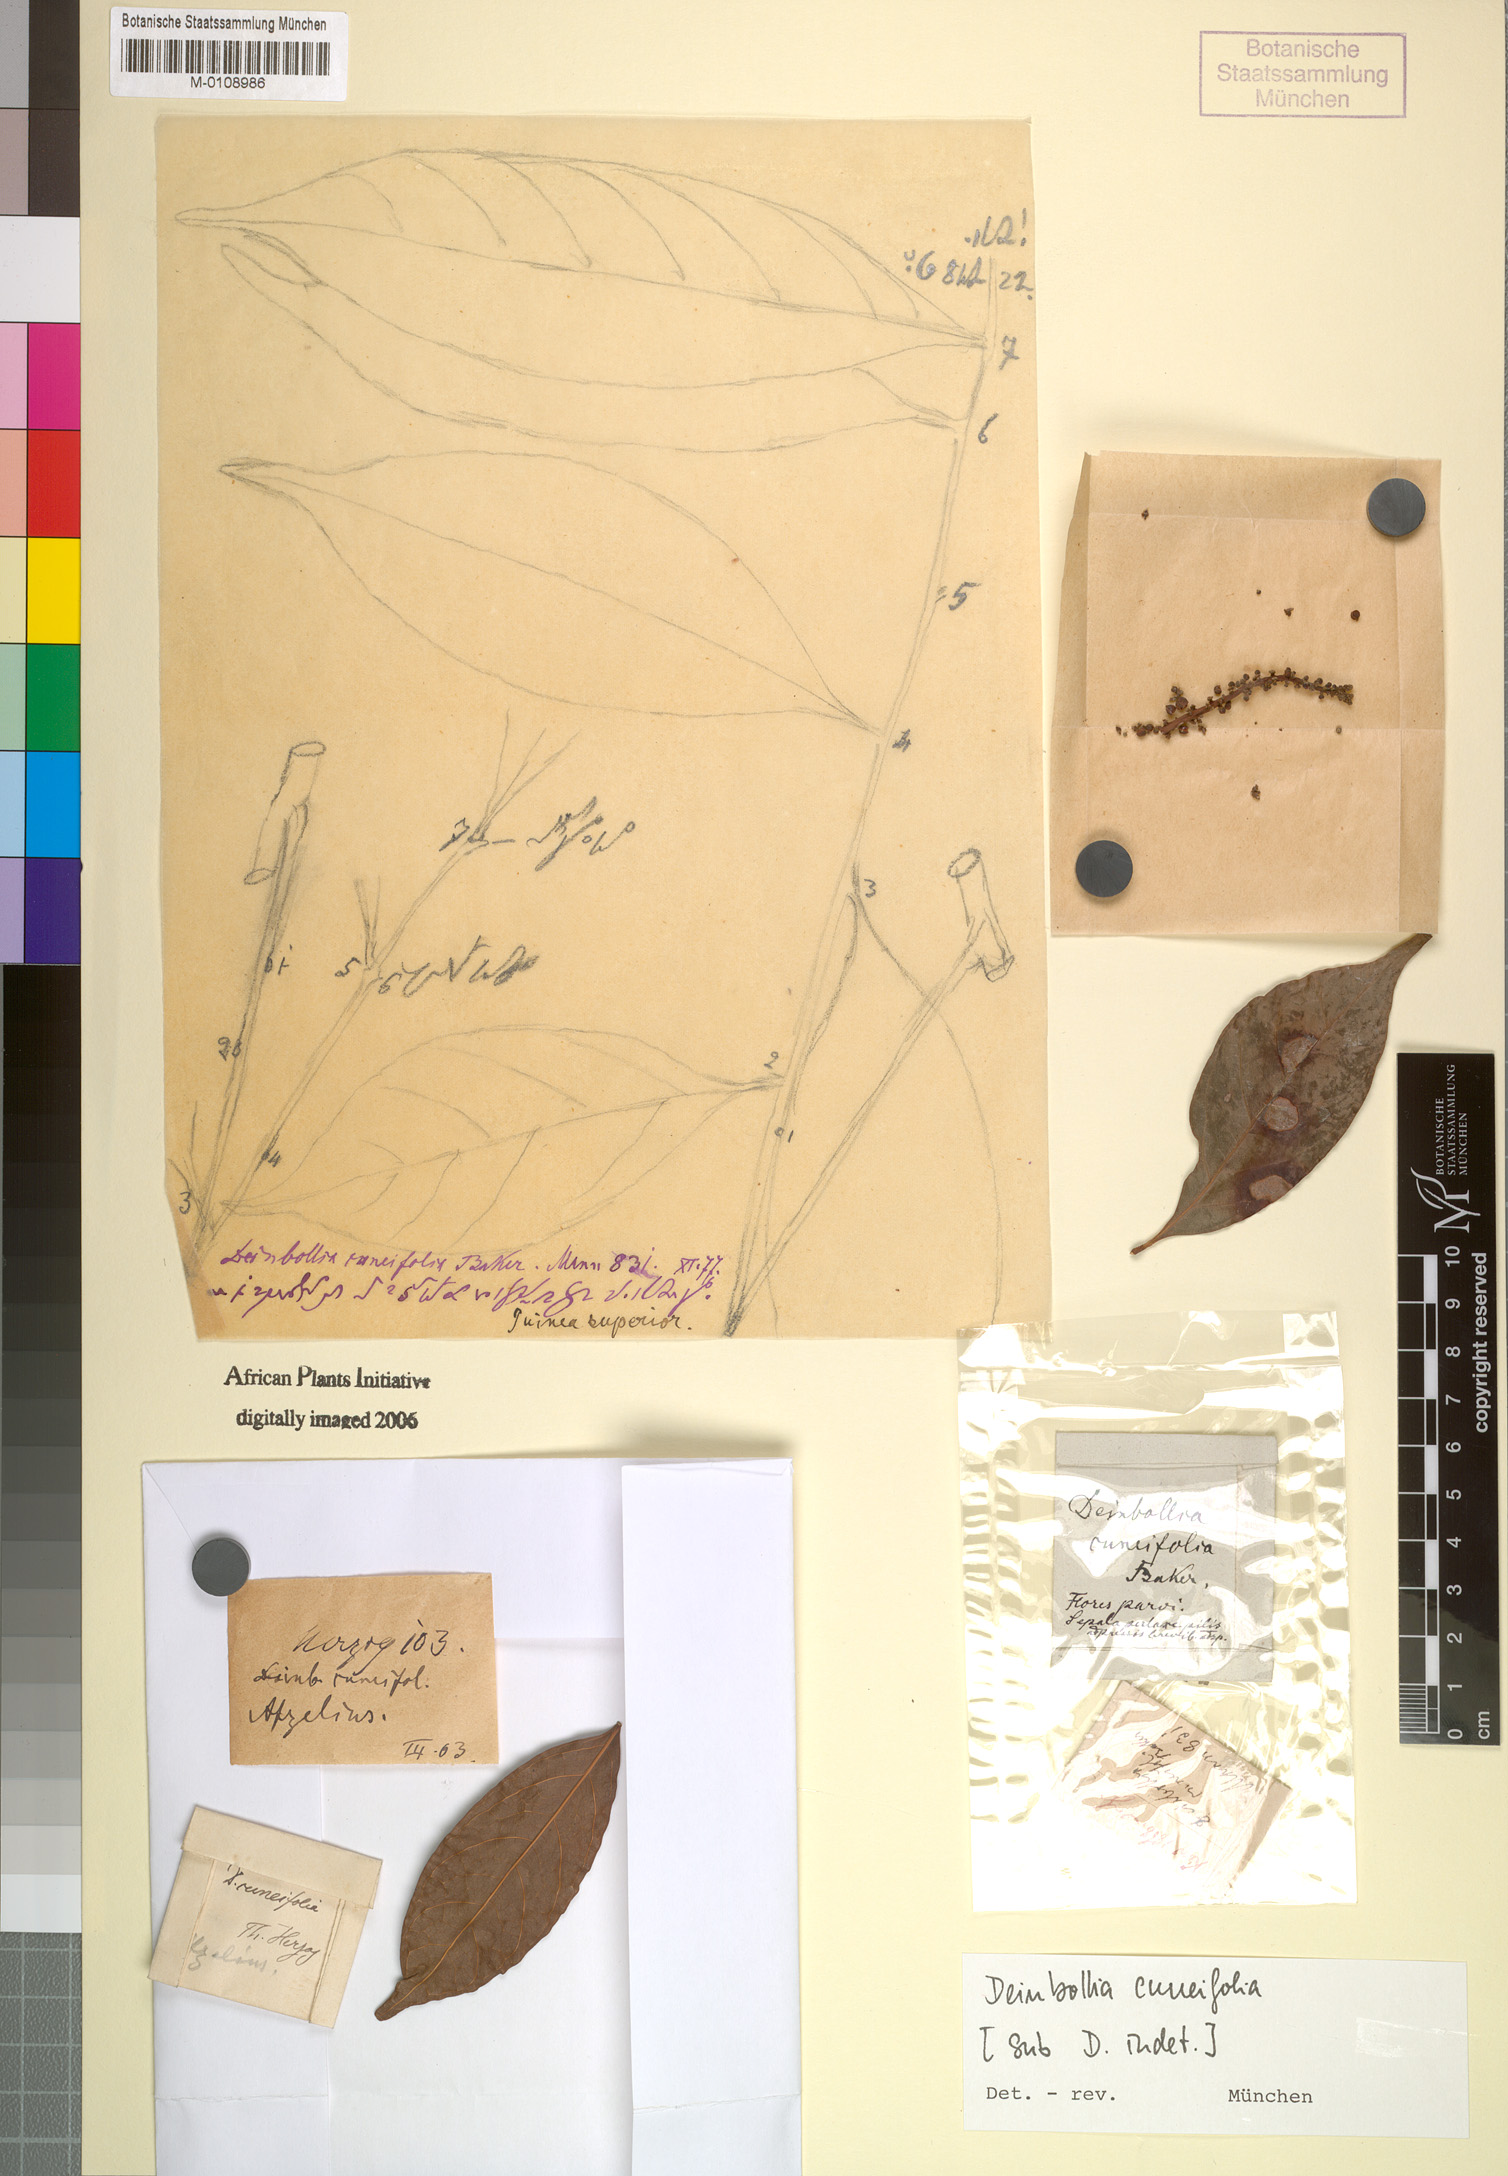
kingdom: Plantae
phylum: Tracheophyta
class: Magnoliopsida
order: Sapindales
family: Sapindaceae
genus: Deinbollia
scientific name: Deinbollia cuneifolia
